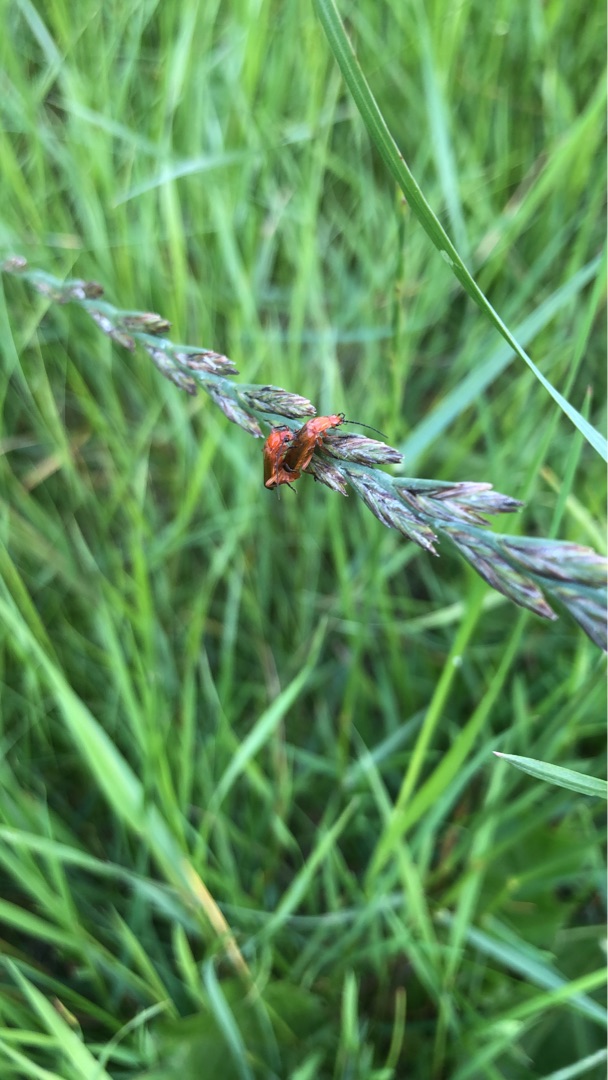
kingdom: Animalia
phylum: Arthropoda
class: Insecta
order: Coleoptera
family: Cantharidae
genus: Rhagonycha
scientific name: Rhagonycha fulva
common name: Præstebille
